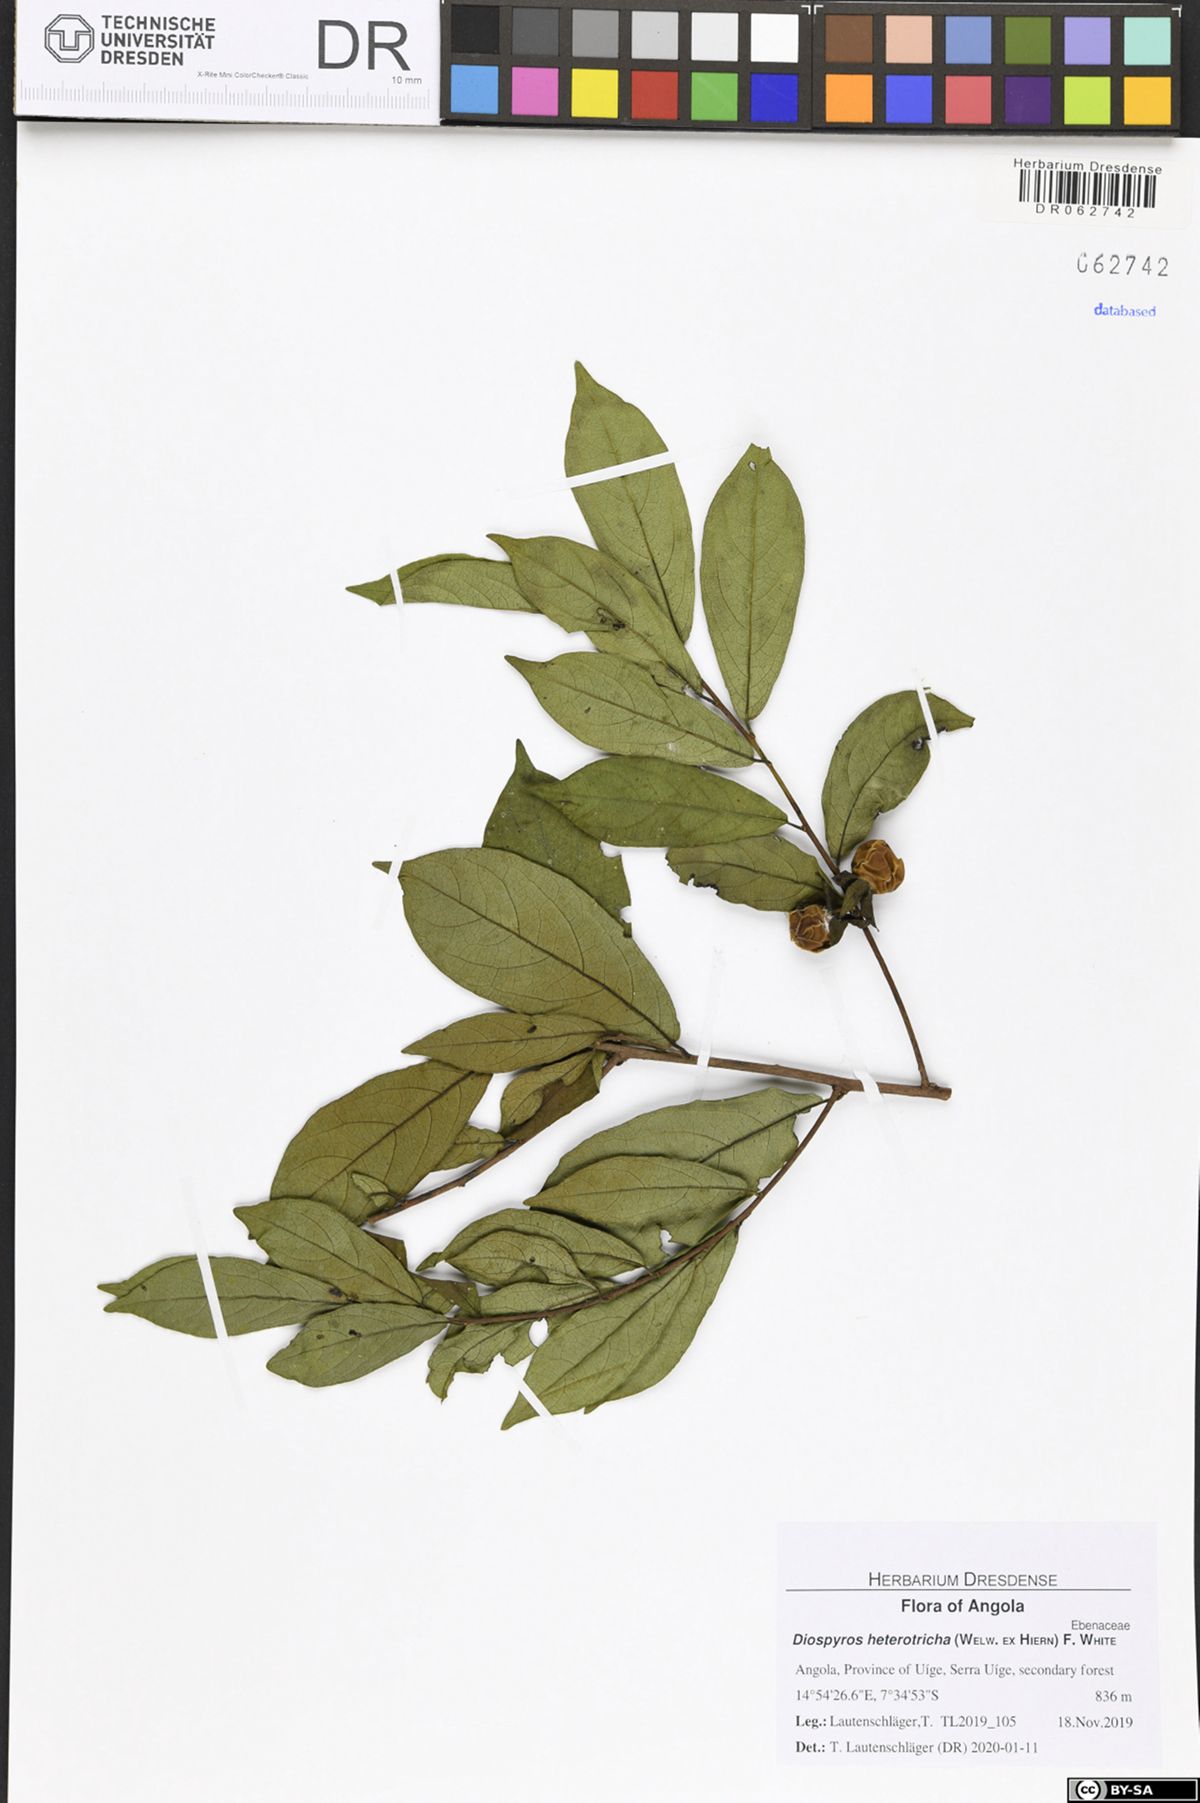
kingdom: Plantae
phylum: Tracheophyta
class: Magnoliopsida
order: Ericales
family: Ebenaceae
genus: Diospyros
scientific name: Diospyros heterotricha
